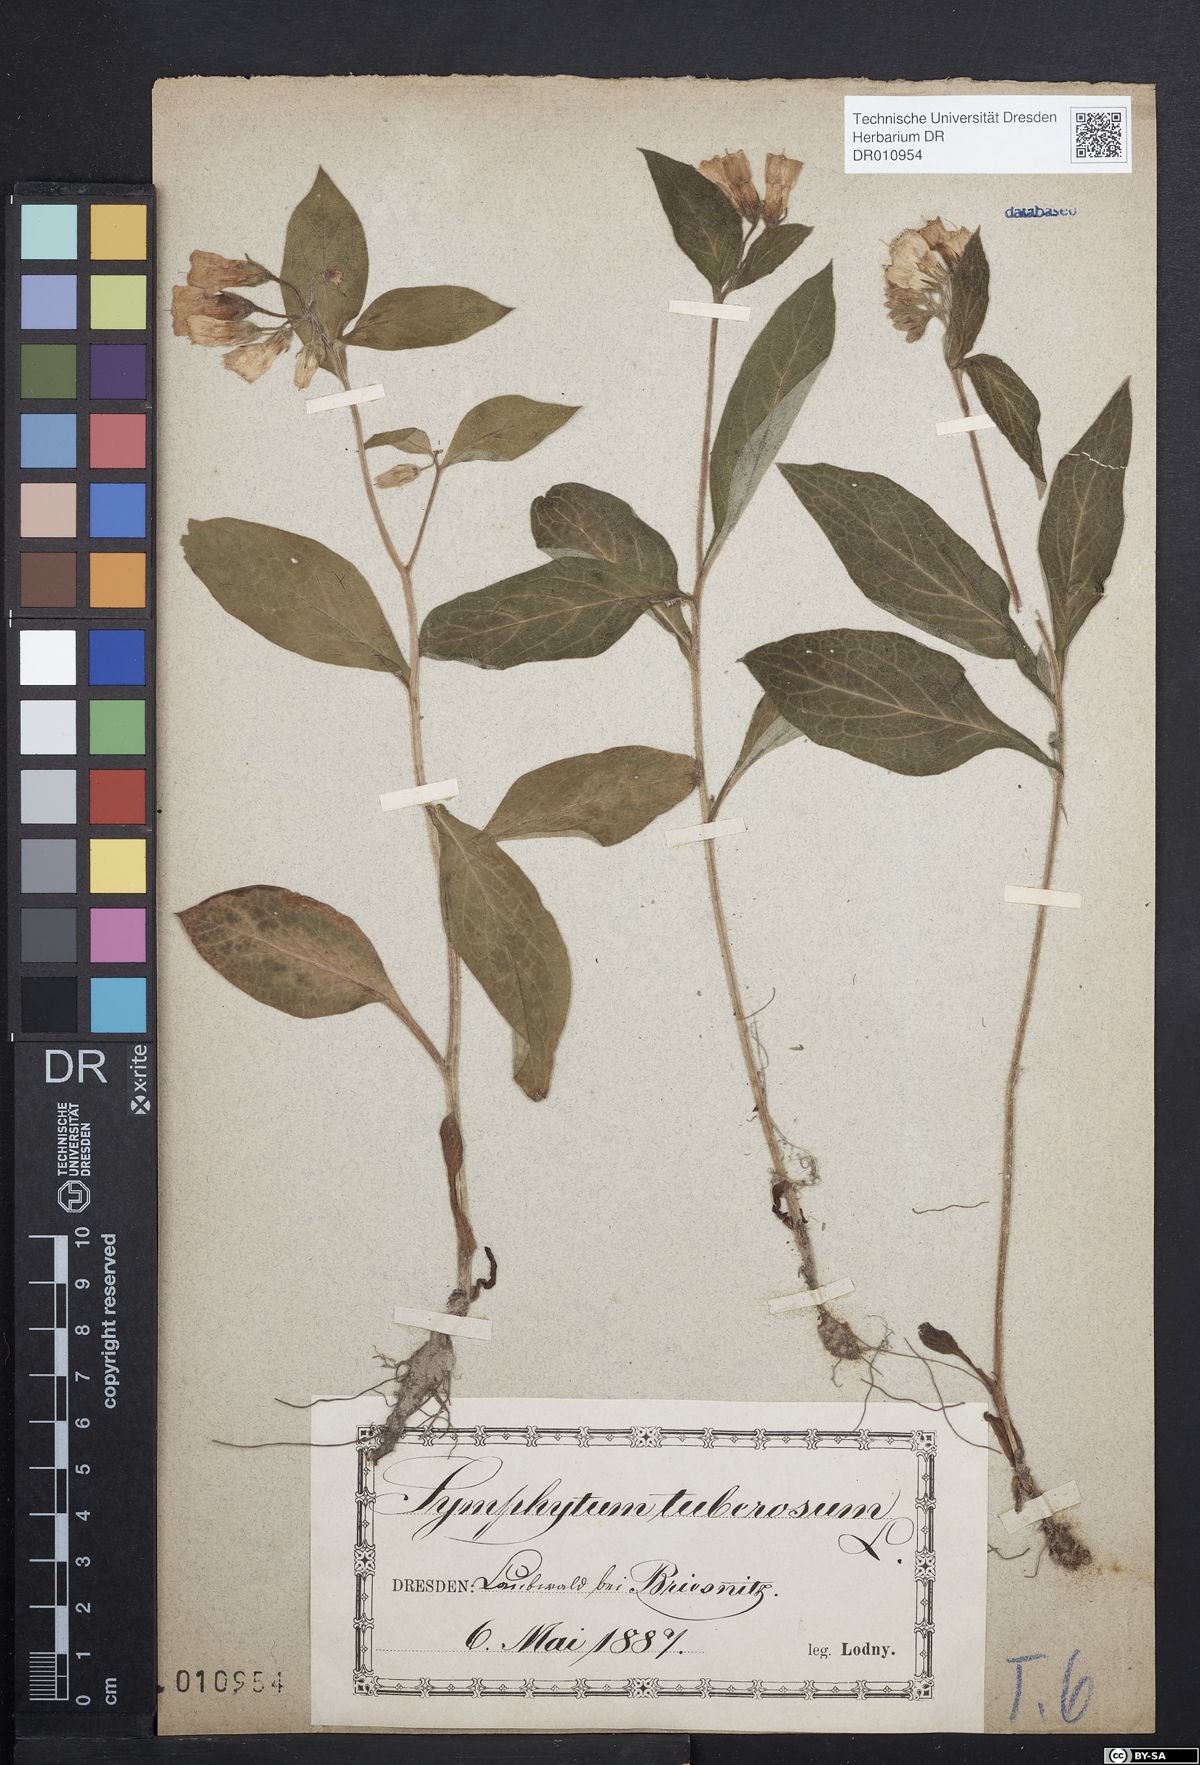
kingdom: Plantae
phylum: Tracheophyta
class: Magnoliopsida
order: Boraginales
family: Boraginaceae
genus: Symphytum
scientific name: Symphytum tuberosum
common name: Tuberous comfrey
